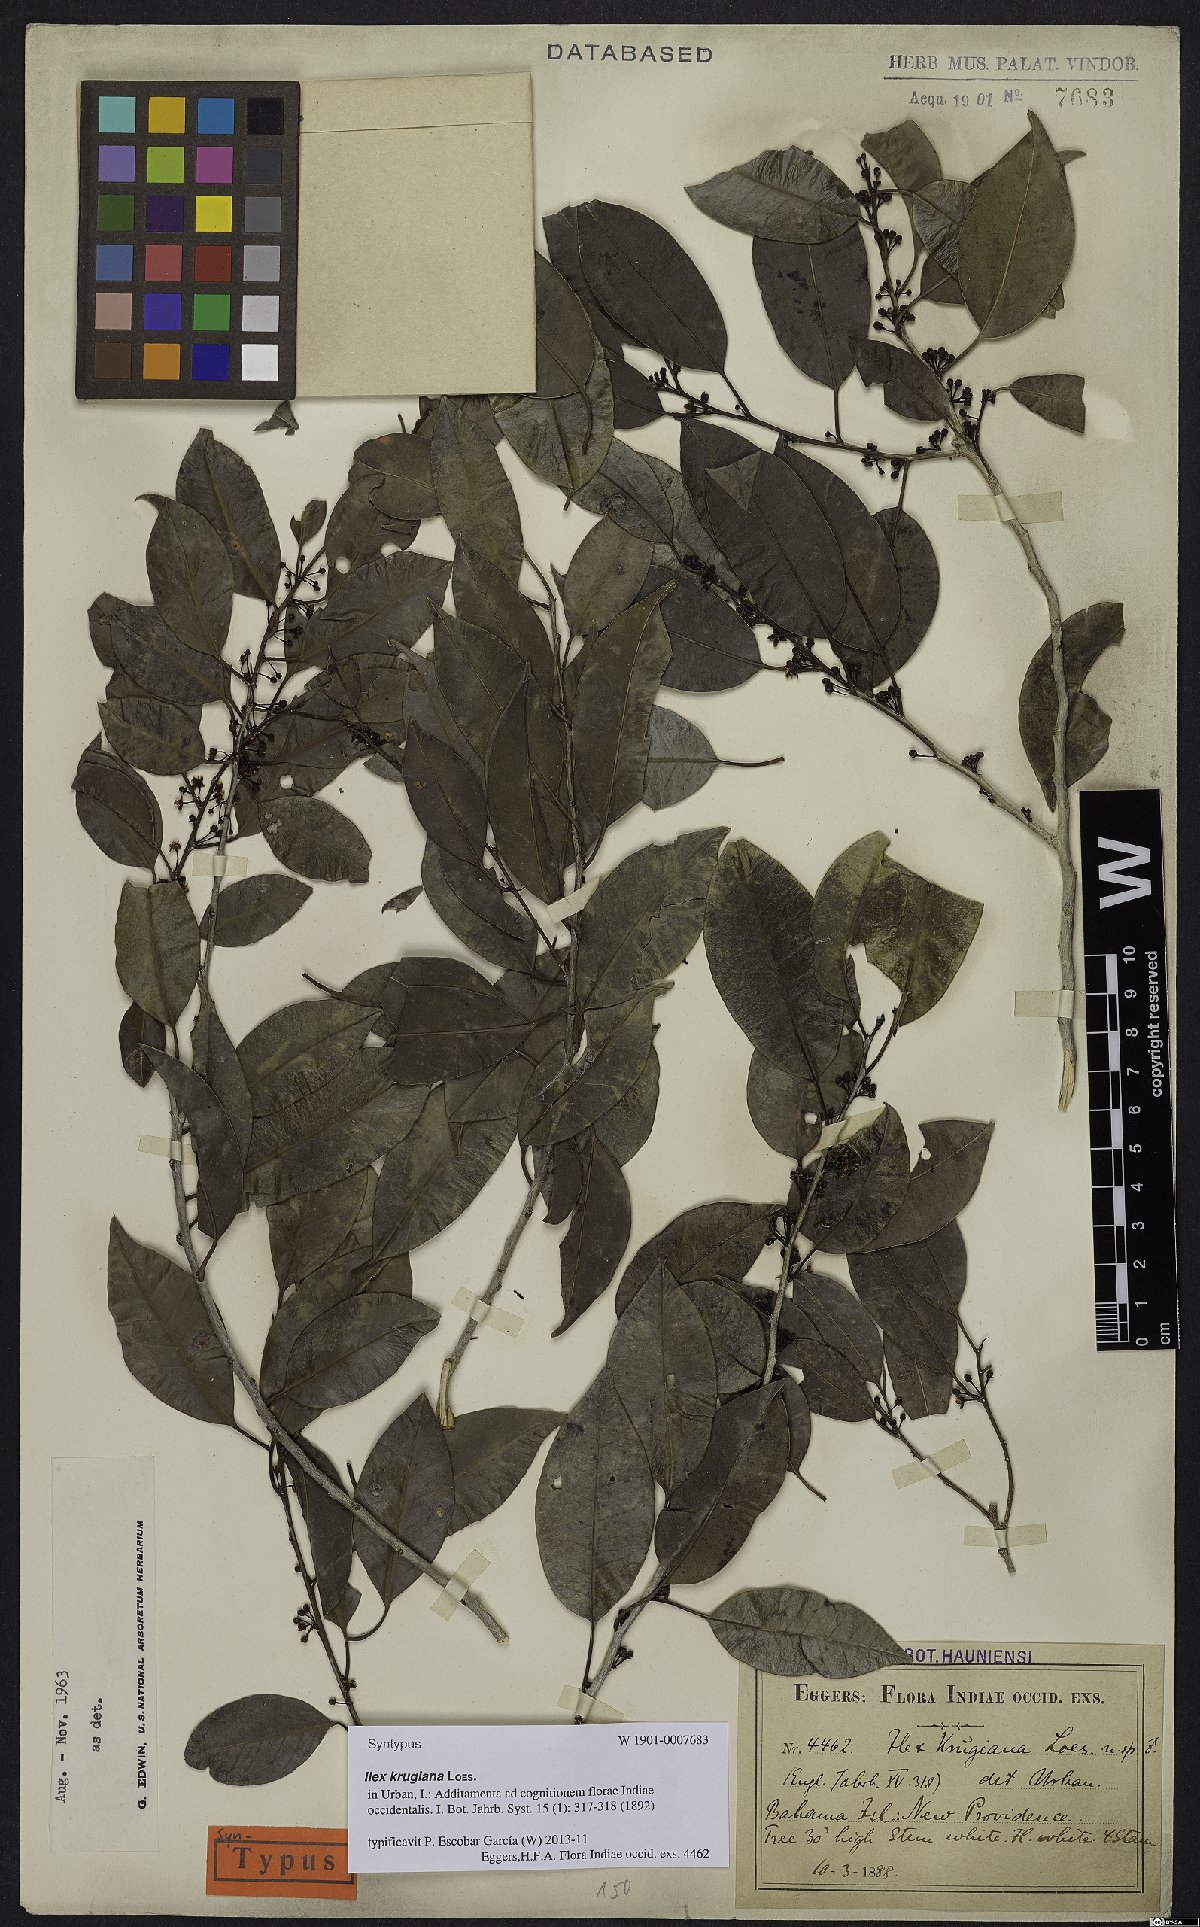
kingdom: Plantae
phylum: Tracheophyta
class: Magnoliopsida
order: Aquifoliales
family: Aquifoliaceae
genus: Ilex
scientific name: Ilex krugiana
